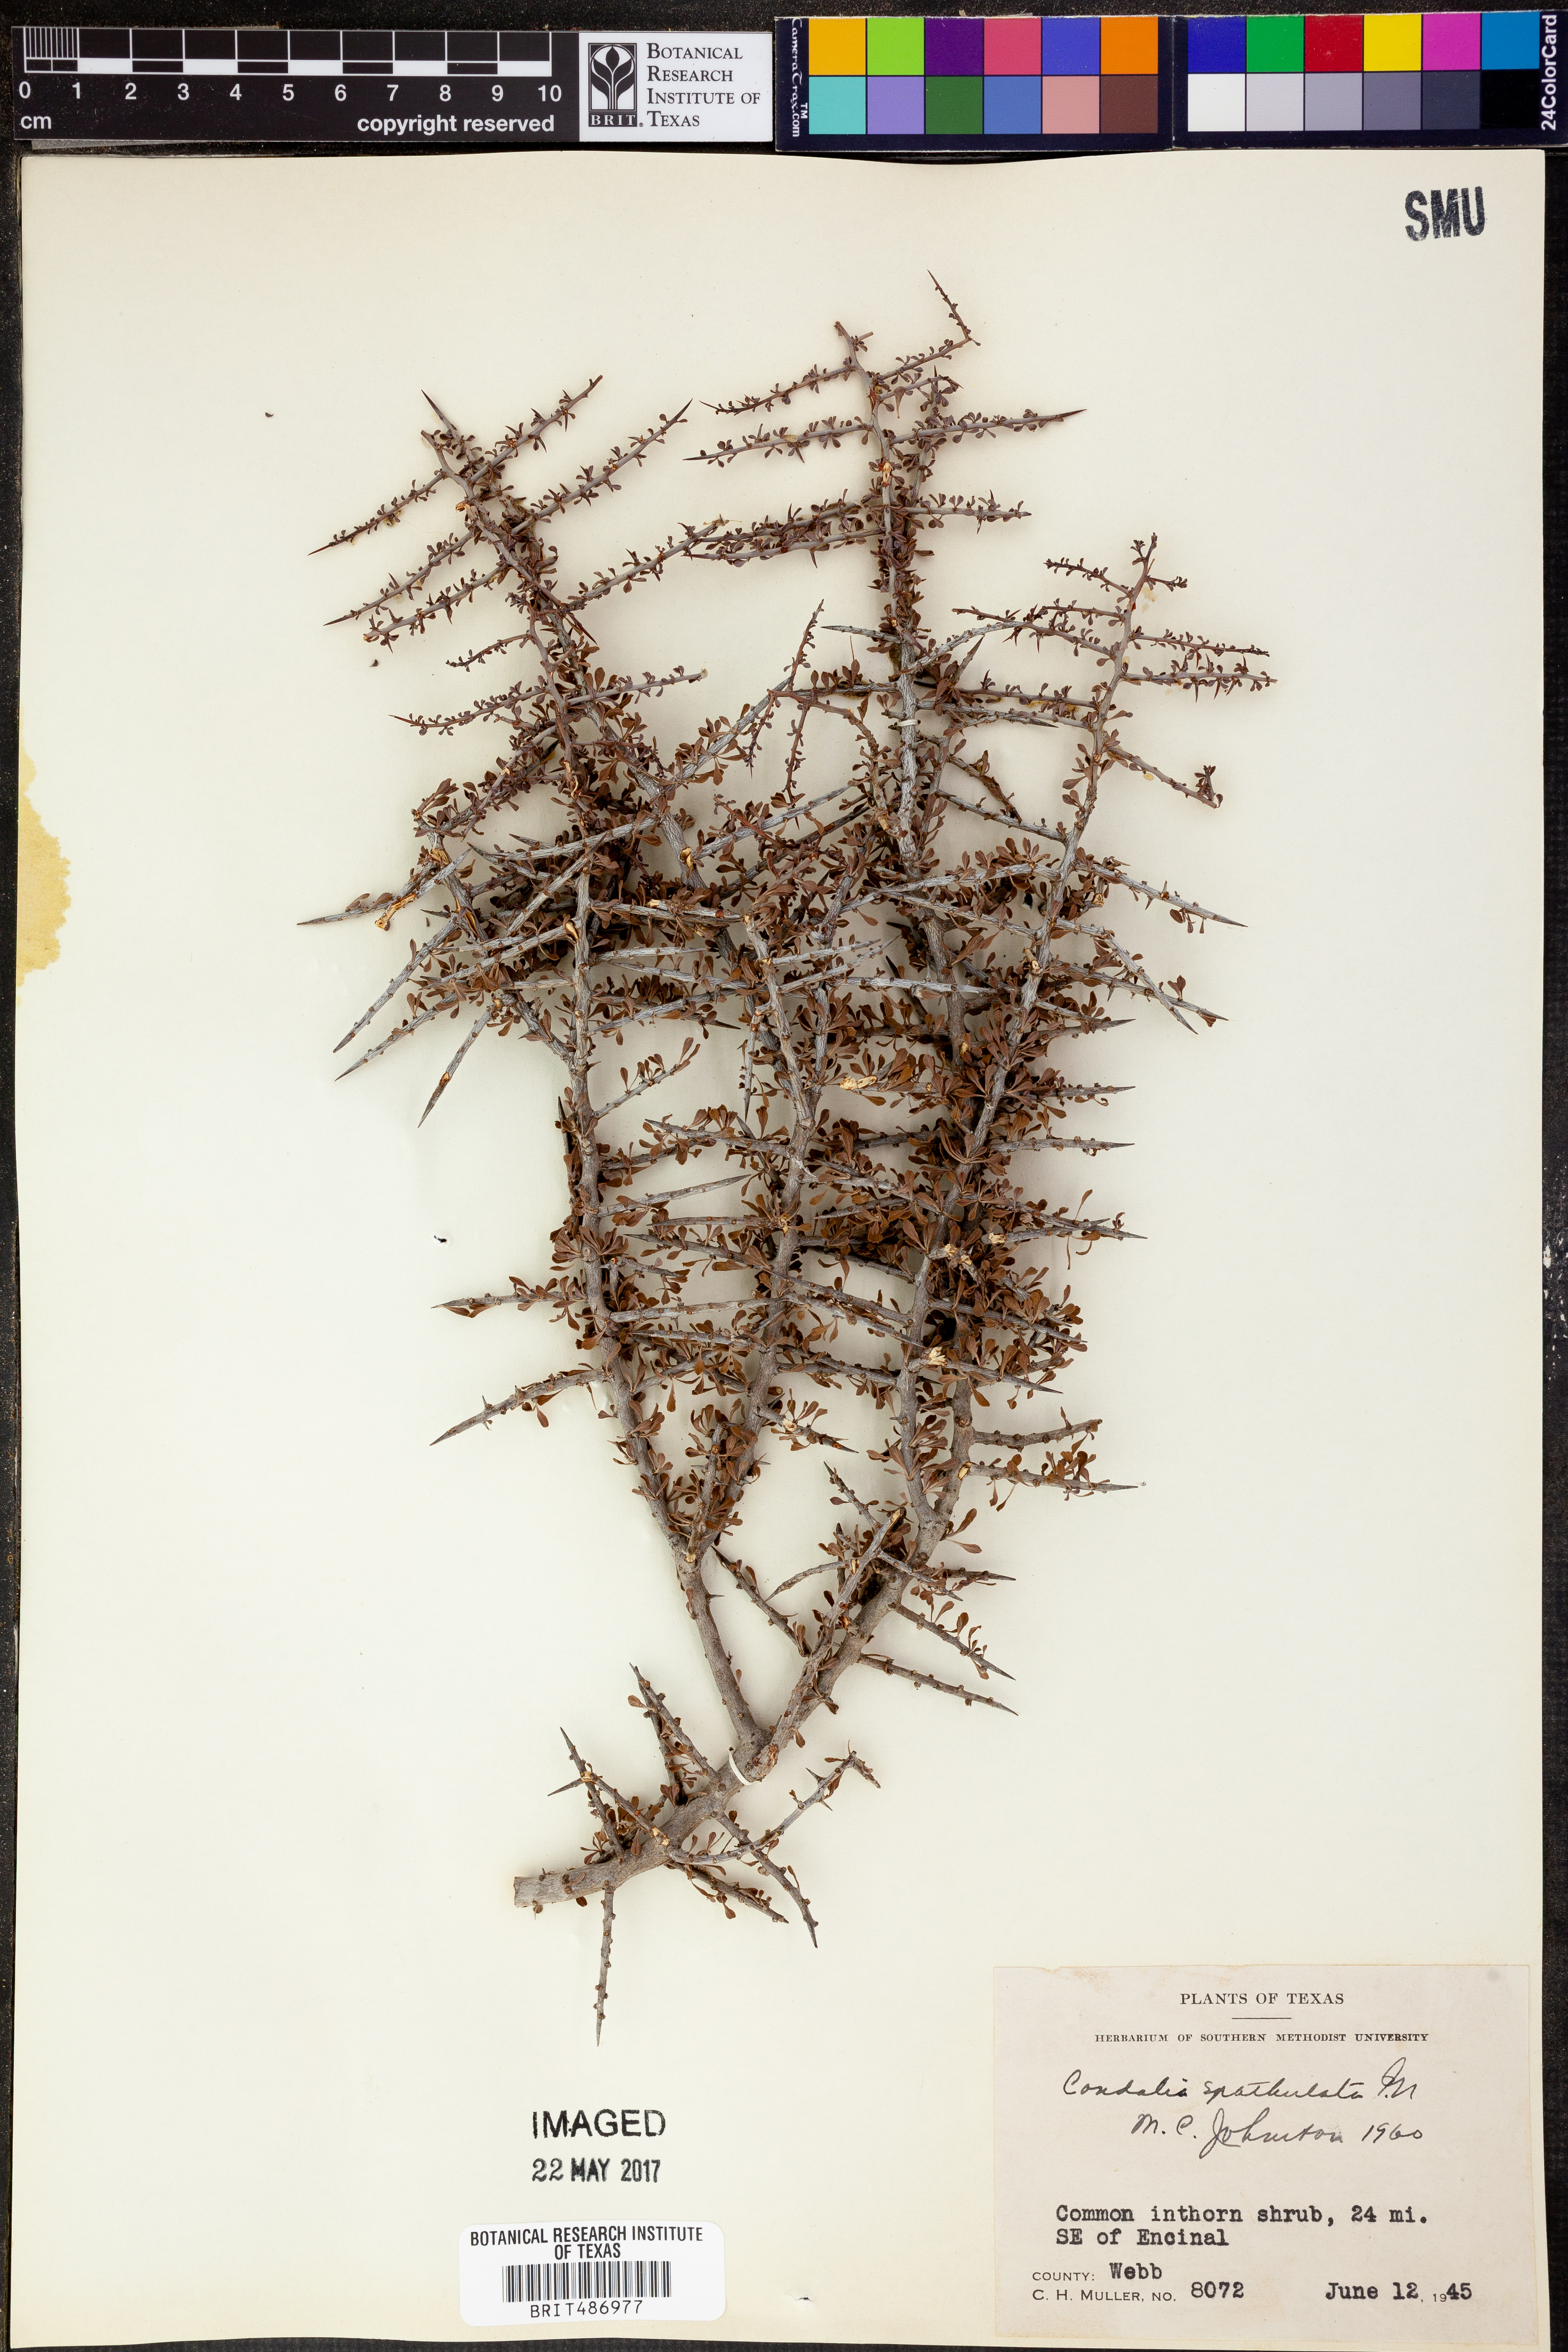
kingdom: Plantae
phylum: Tracheophyta
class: Magnoliopsida
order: Rosales
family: Rhamnaceae
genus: Condalia
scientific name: Condalia spathulata
